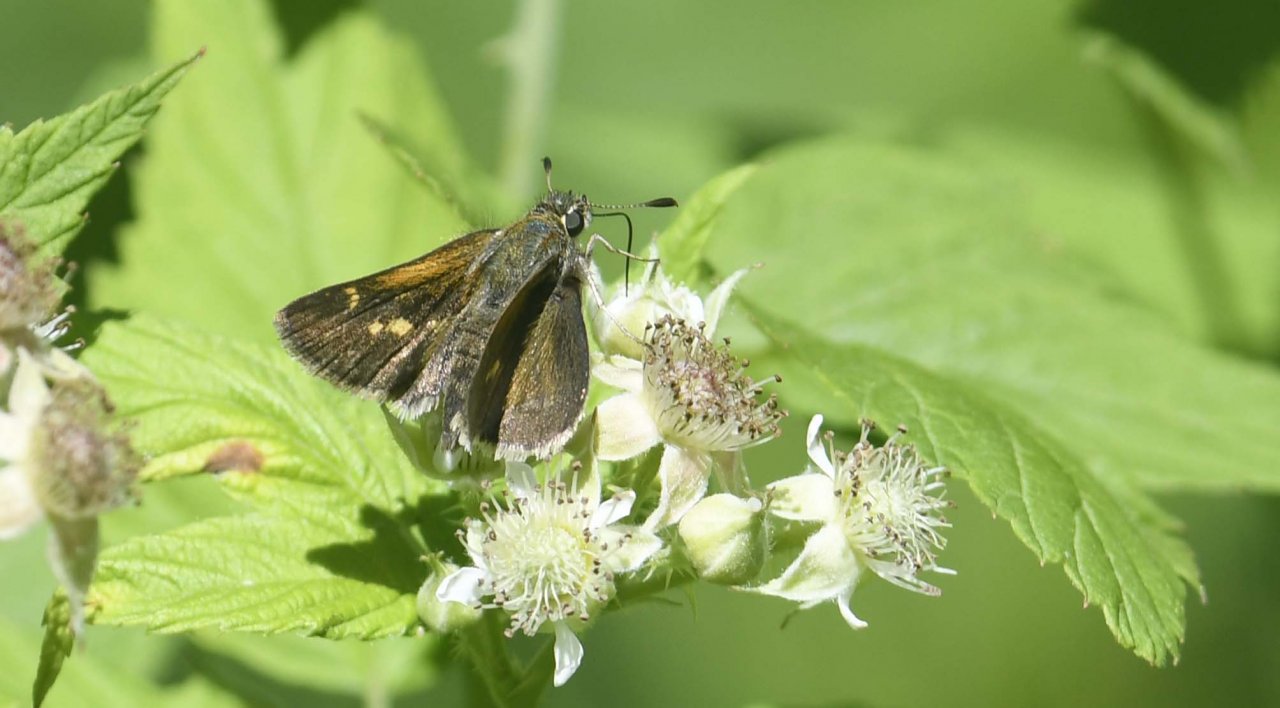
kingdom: Animalia
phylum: Arthropoda
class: Insecta
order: Lepidoptera
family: Hesperiidae
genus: Polites
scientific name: Polites themistocles
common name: Tawny-edged Skipper
